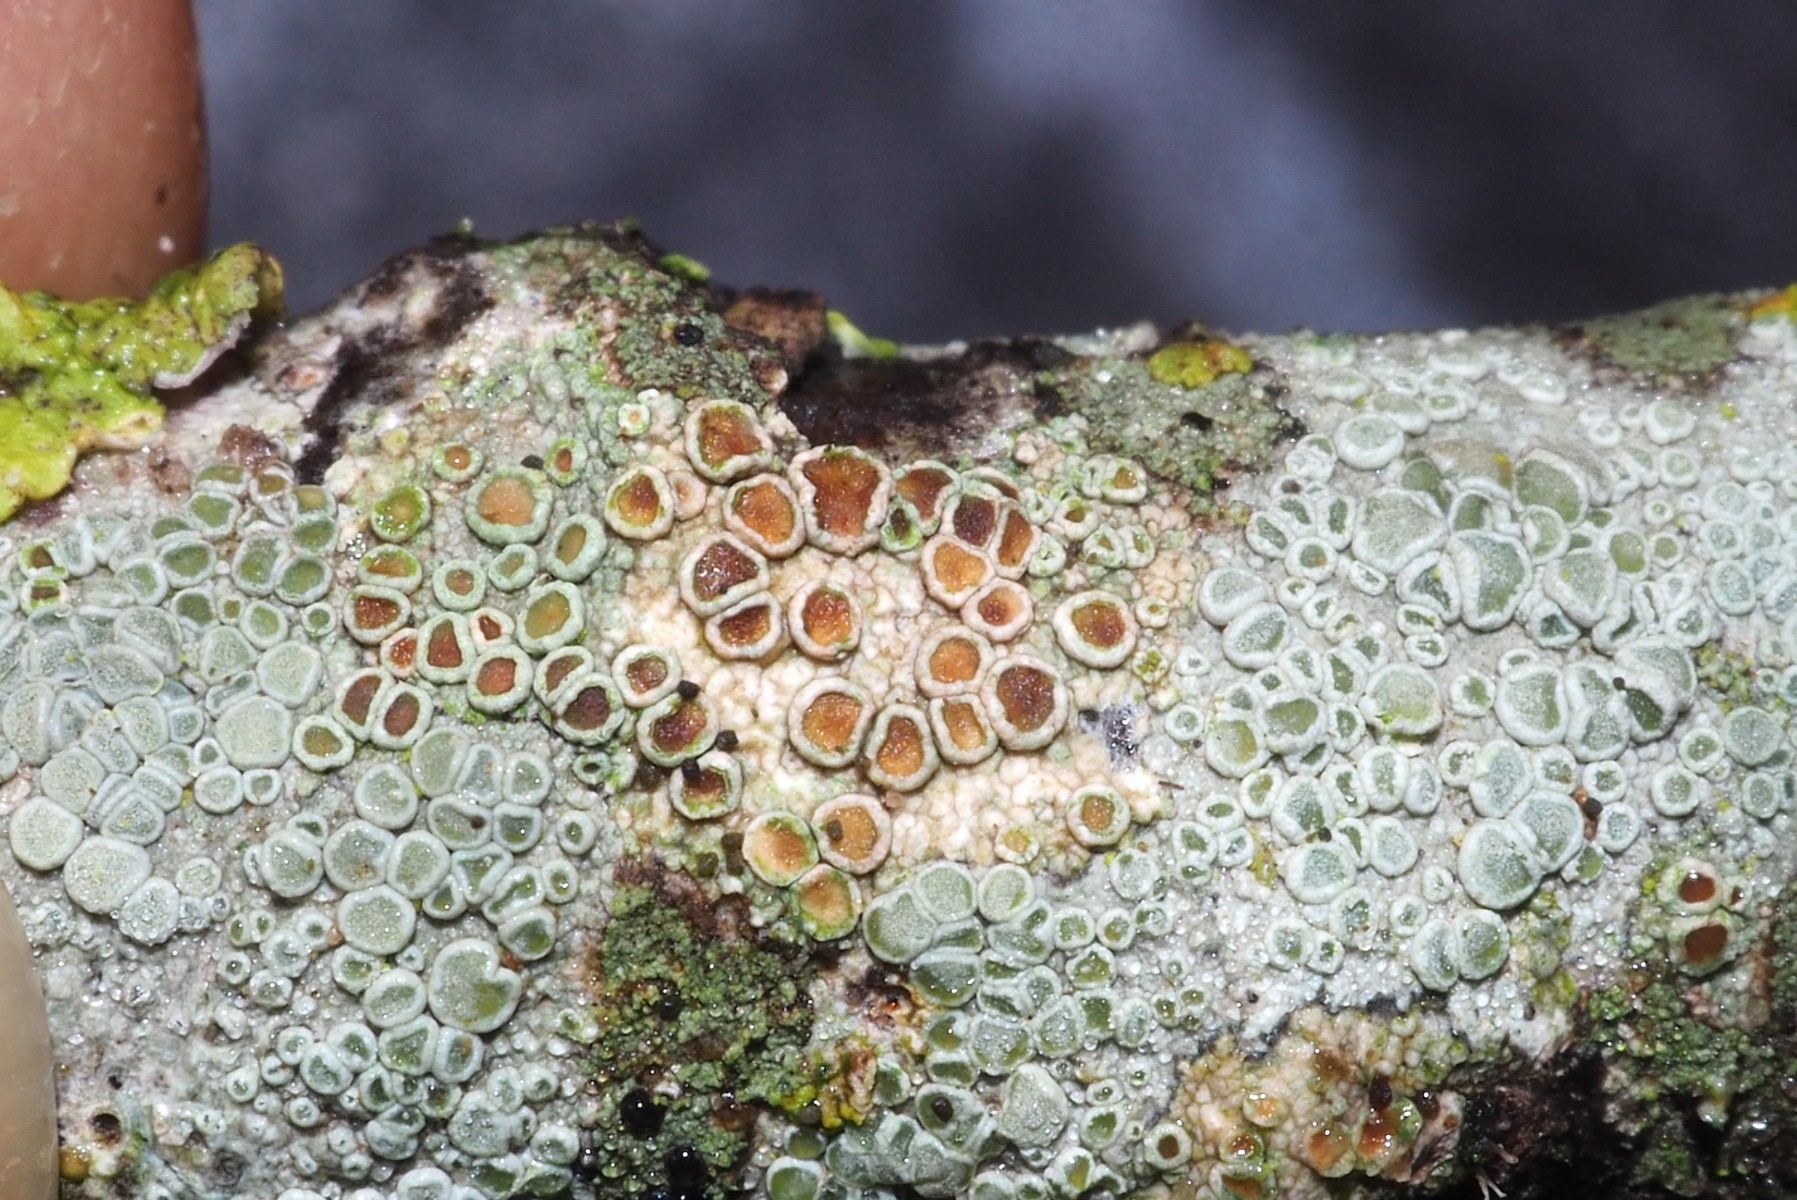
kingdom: Fungi
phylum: Ascomycota
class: Lecanoromycetes
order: Lecanorales
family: Lecanoraceae
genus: Lecanora
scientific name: Lecanora chlarotera
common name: brun kantskivelav
